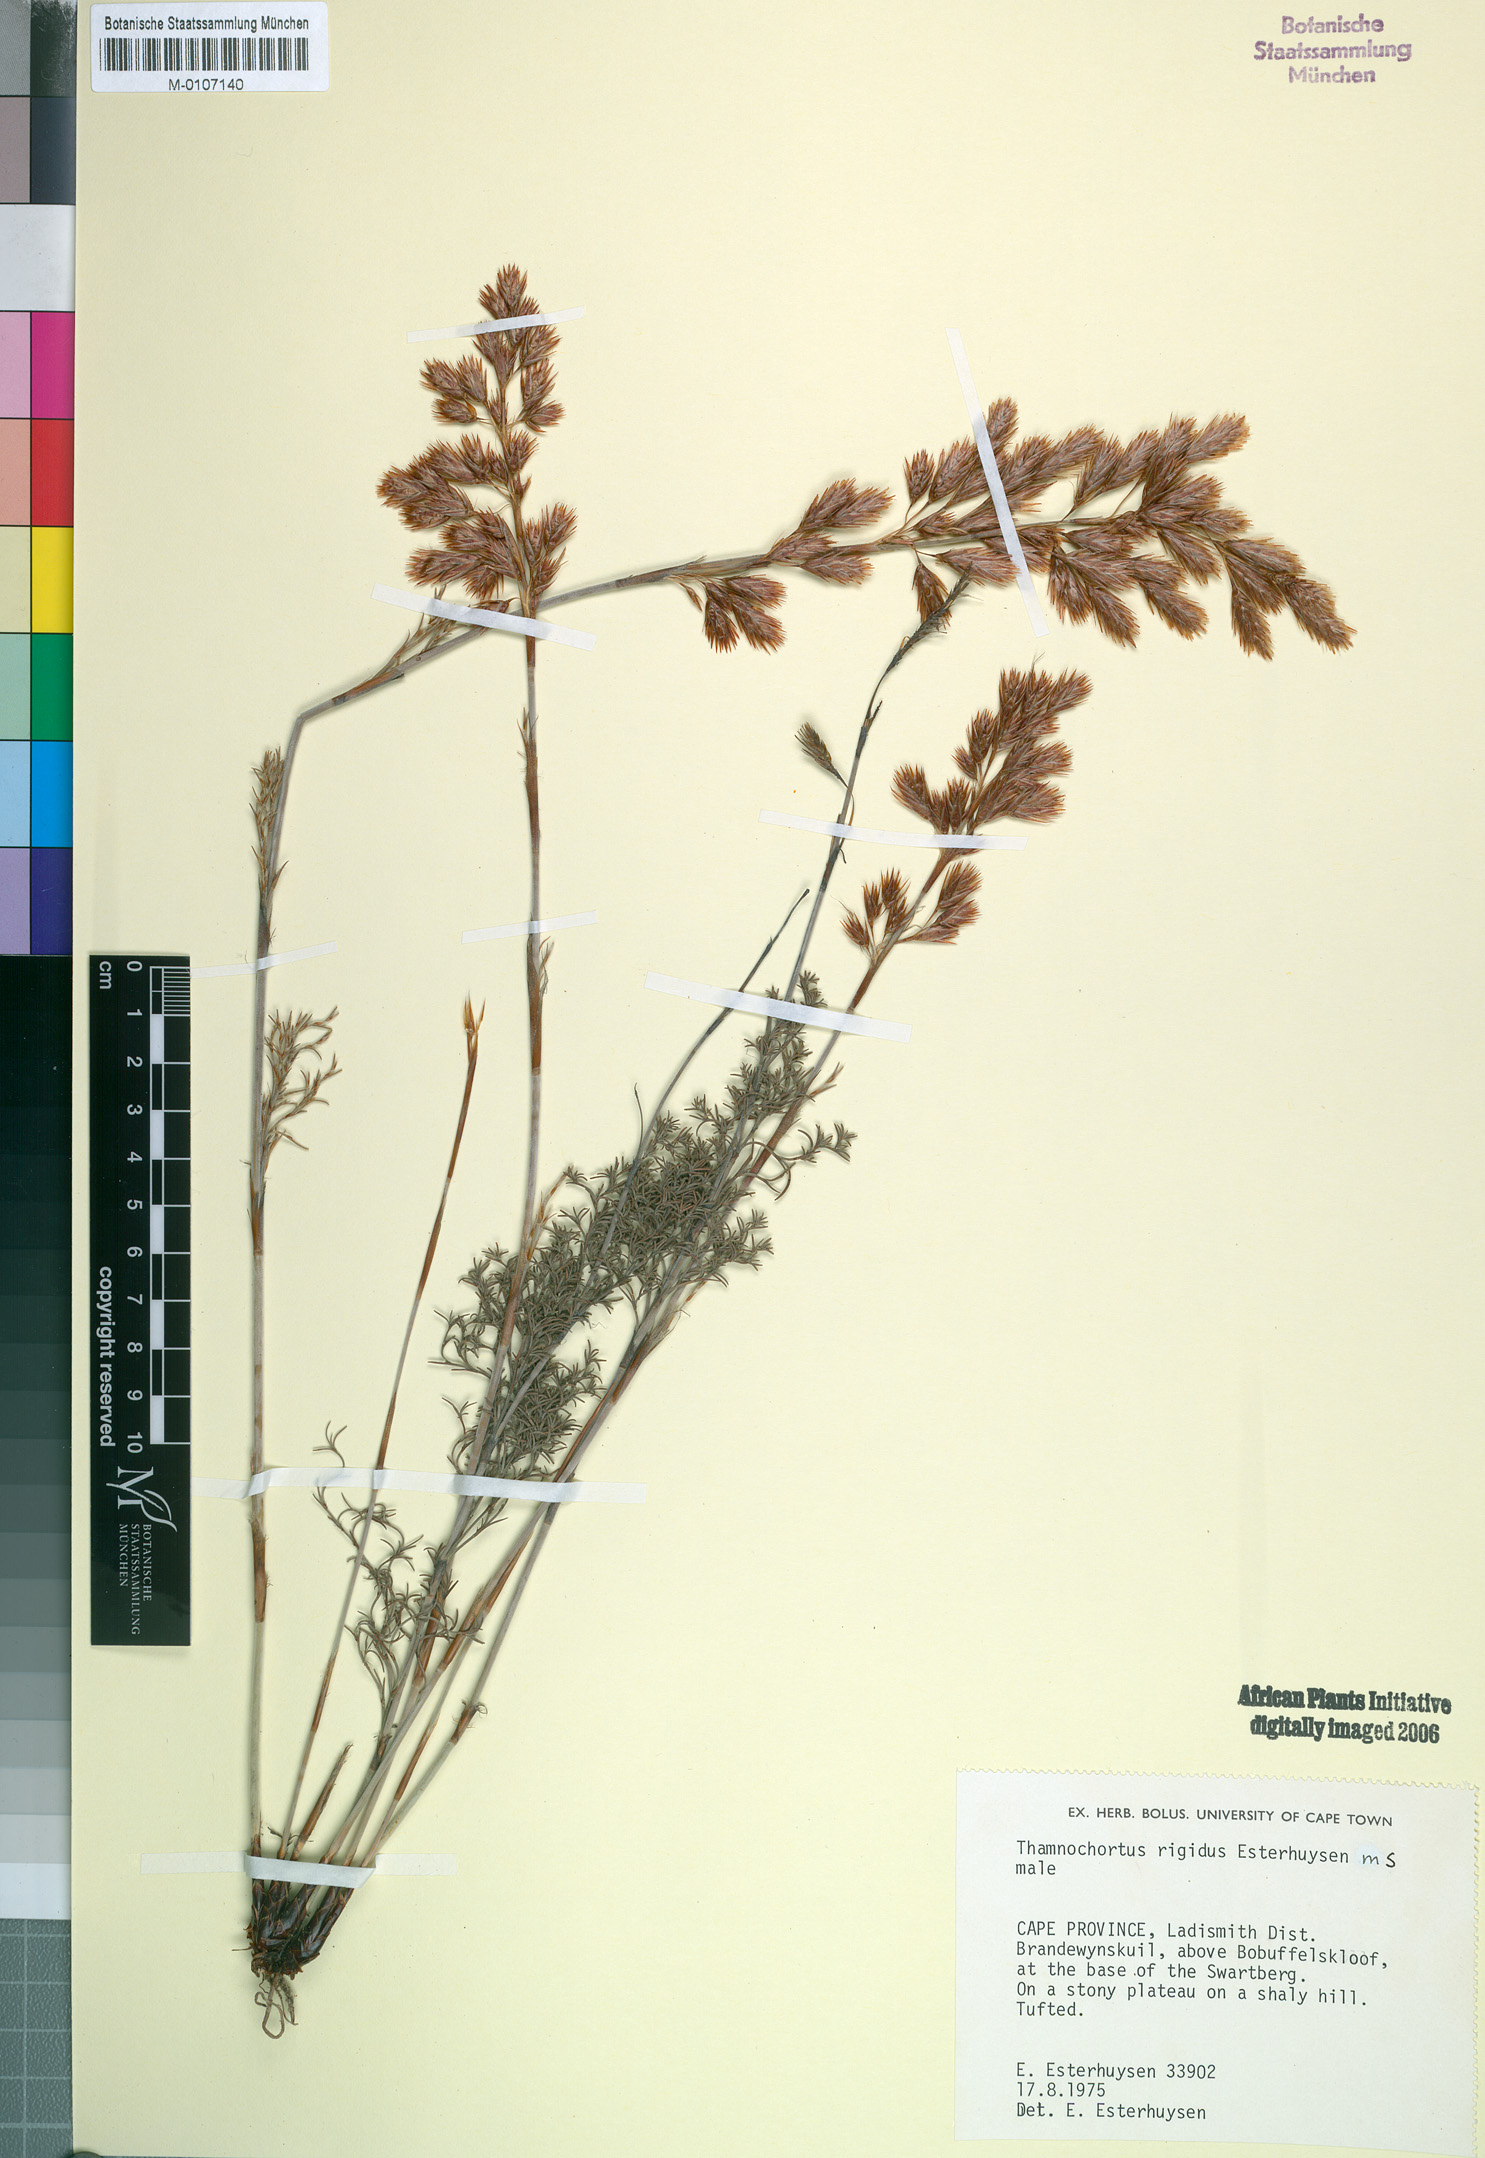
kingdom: Plantae
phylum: Tracheophyta
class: Liliopsida
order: Poales
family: Restionaceae
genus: Thamnochortus
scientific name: Thamnochortus rigidus
